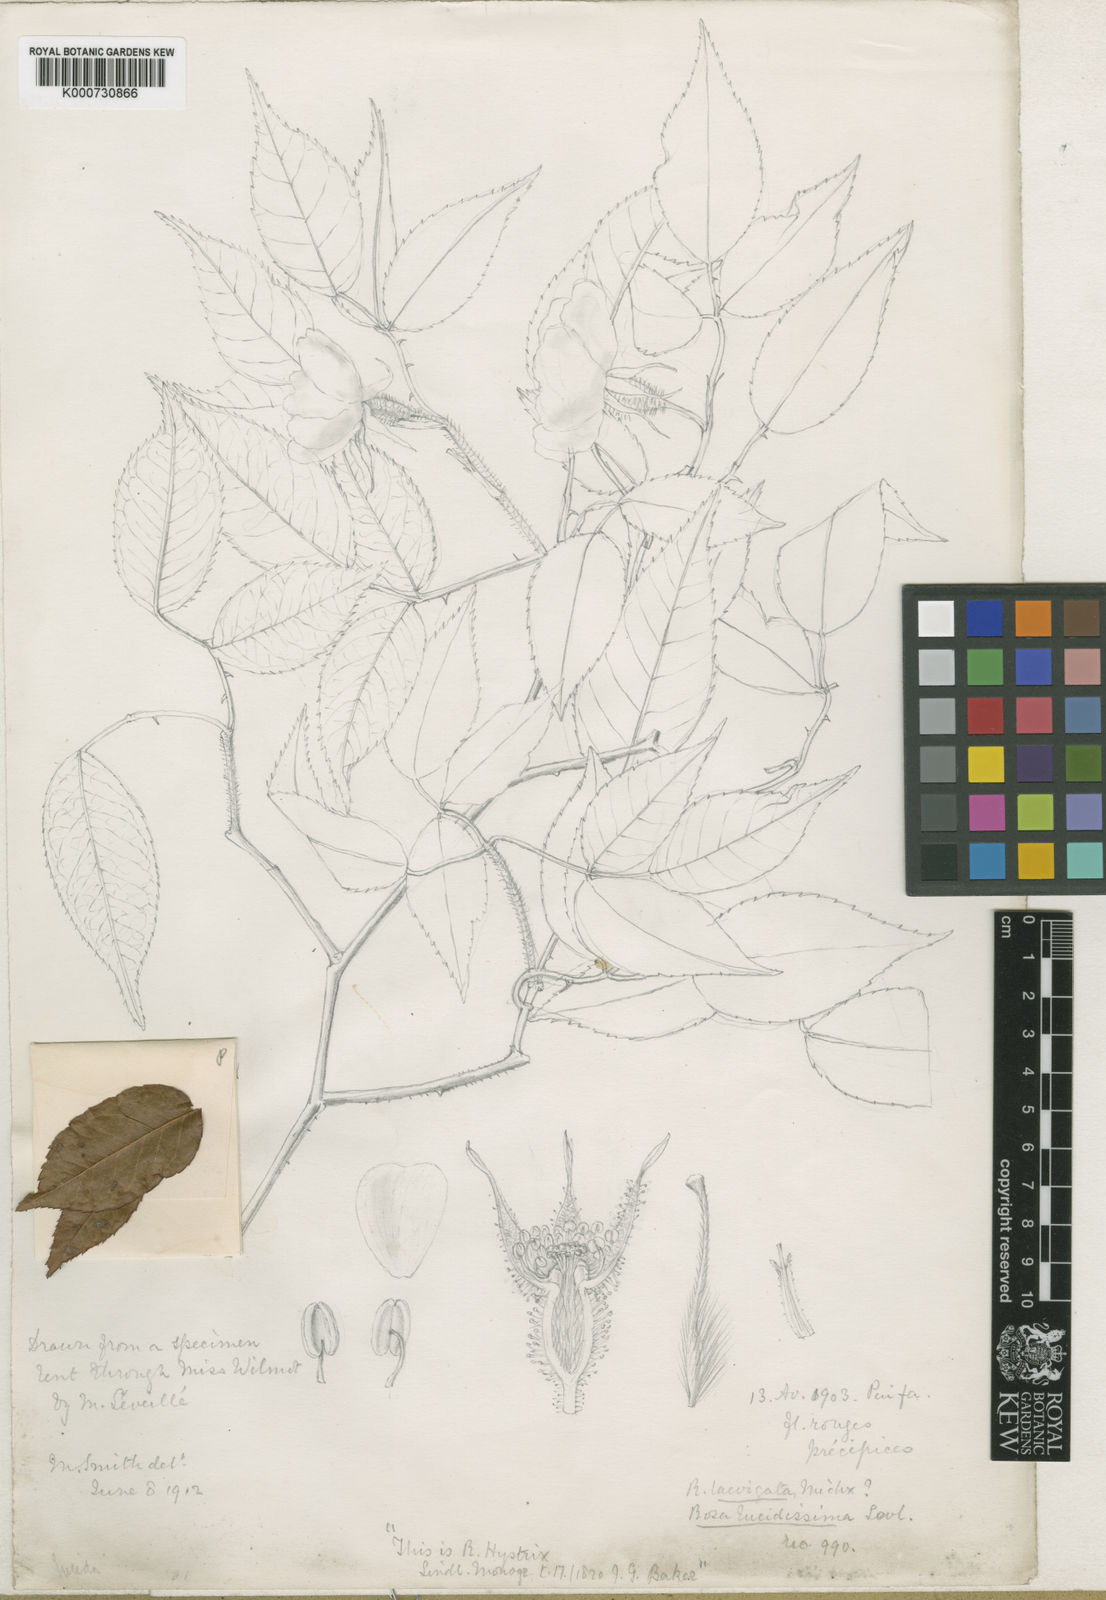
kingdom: Plantae
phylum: Tracheophyta
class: Magnoliopsida
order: Rosales
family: Rosaceae
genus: Rosa
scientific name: Rosa laevigata
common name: Cherokee rose
